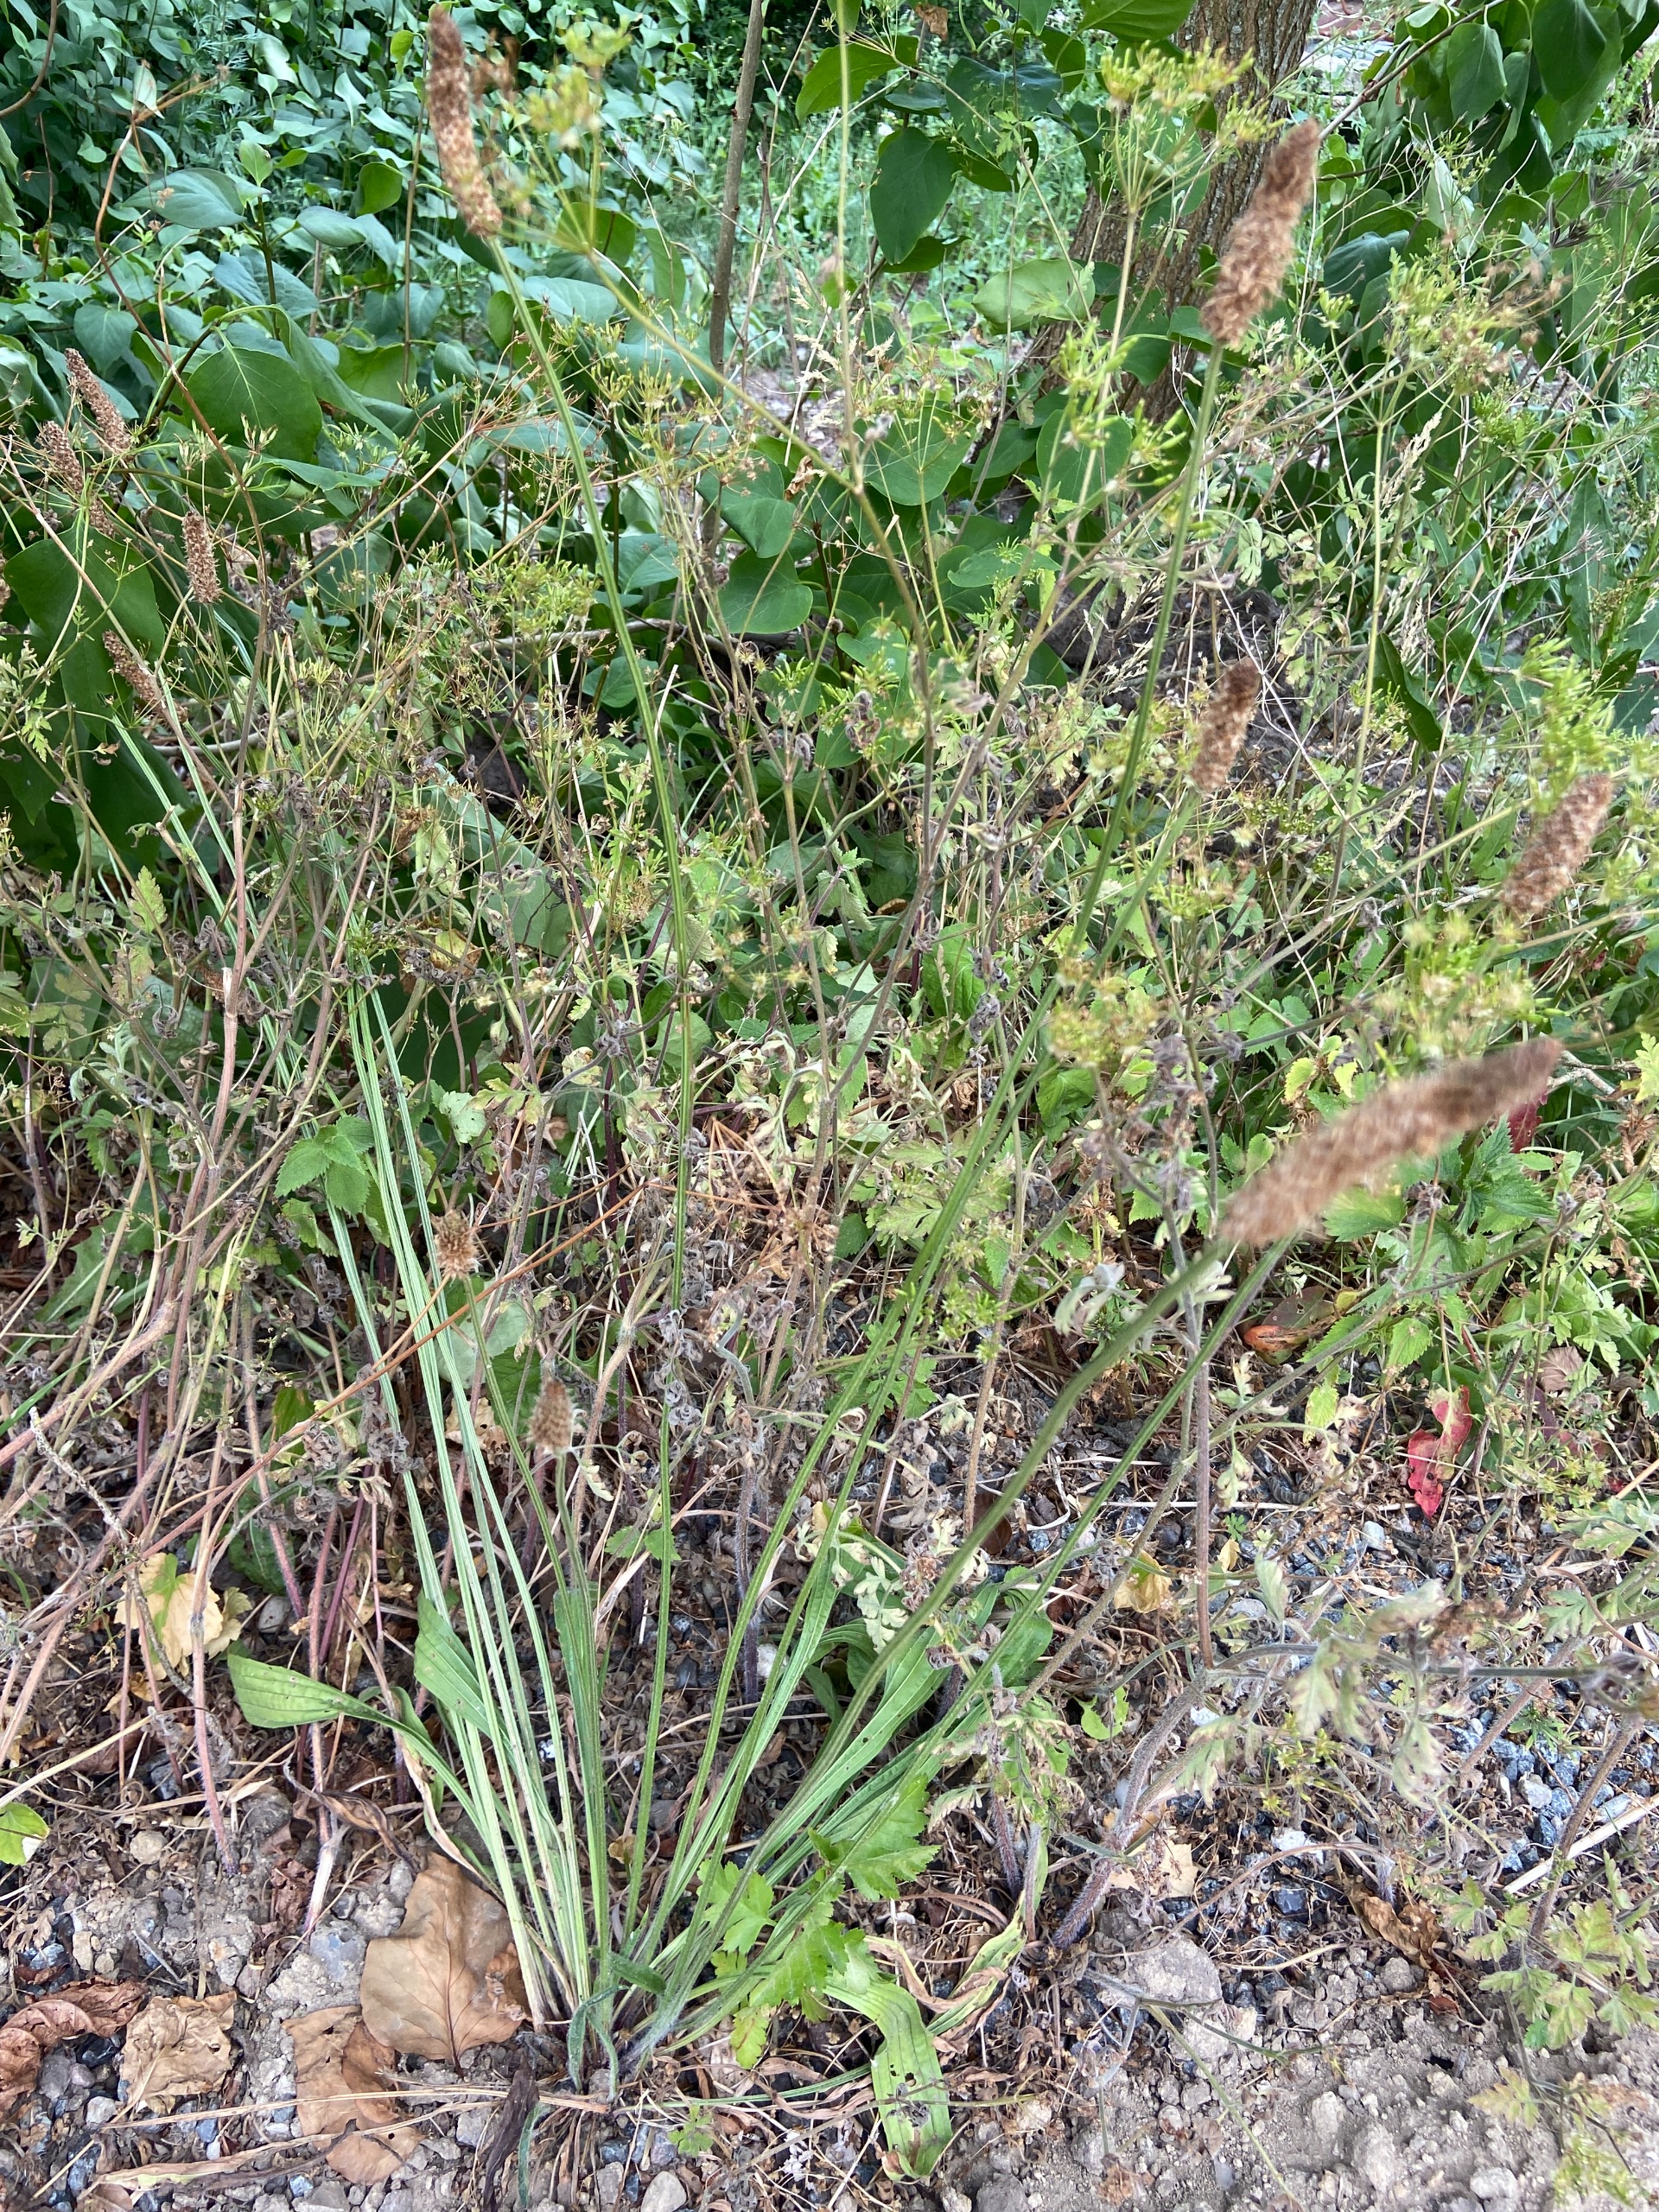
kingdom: Plantae
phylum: Tracheophyta
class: Magnoliopsida
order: Lamiales
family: Plantaginaceae
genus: Plantago
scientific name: Plantago lanceolata
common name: Lancet-vejbred
